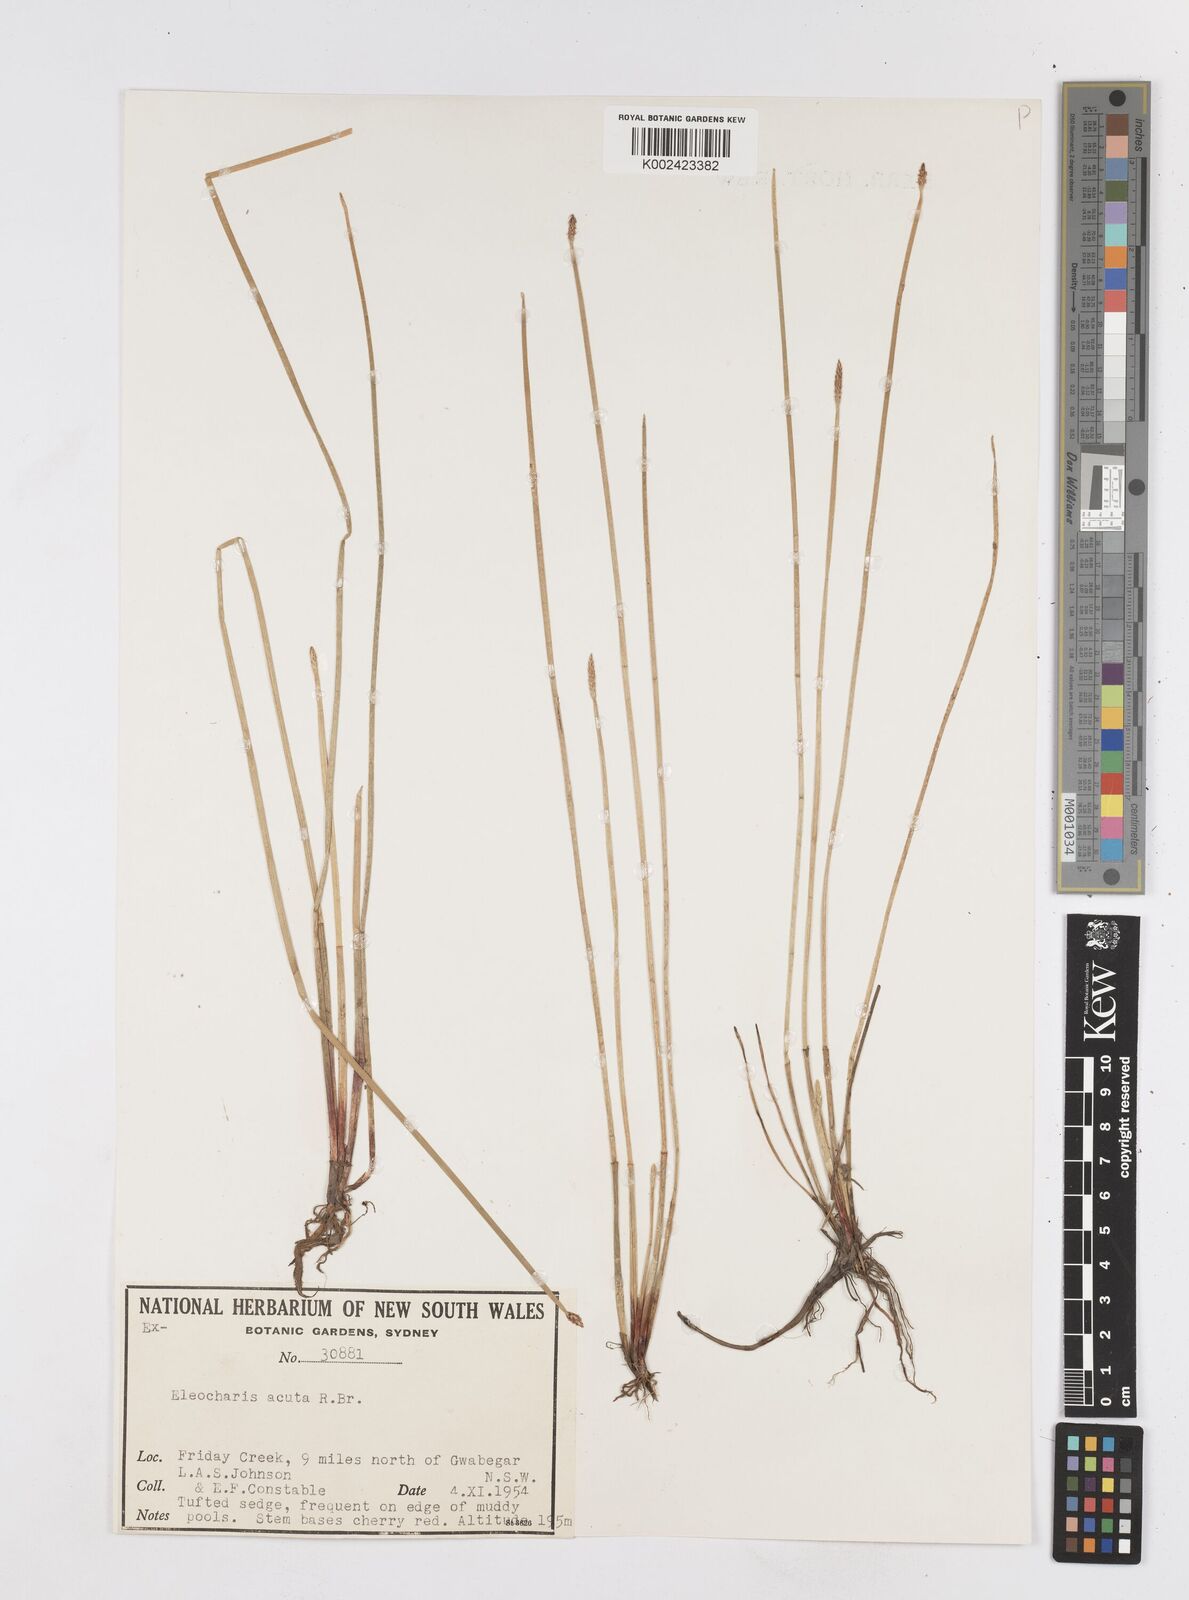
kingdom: Plantae
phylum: Tracheophyta
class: Liliopsida
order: Poales
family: Cyperaceae
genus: Eleocharis
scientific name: Eleocharis acuta
